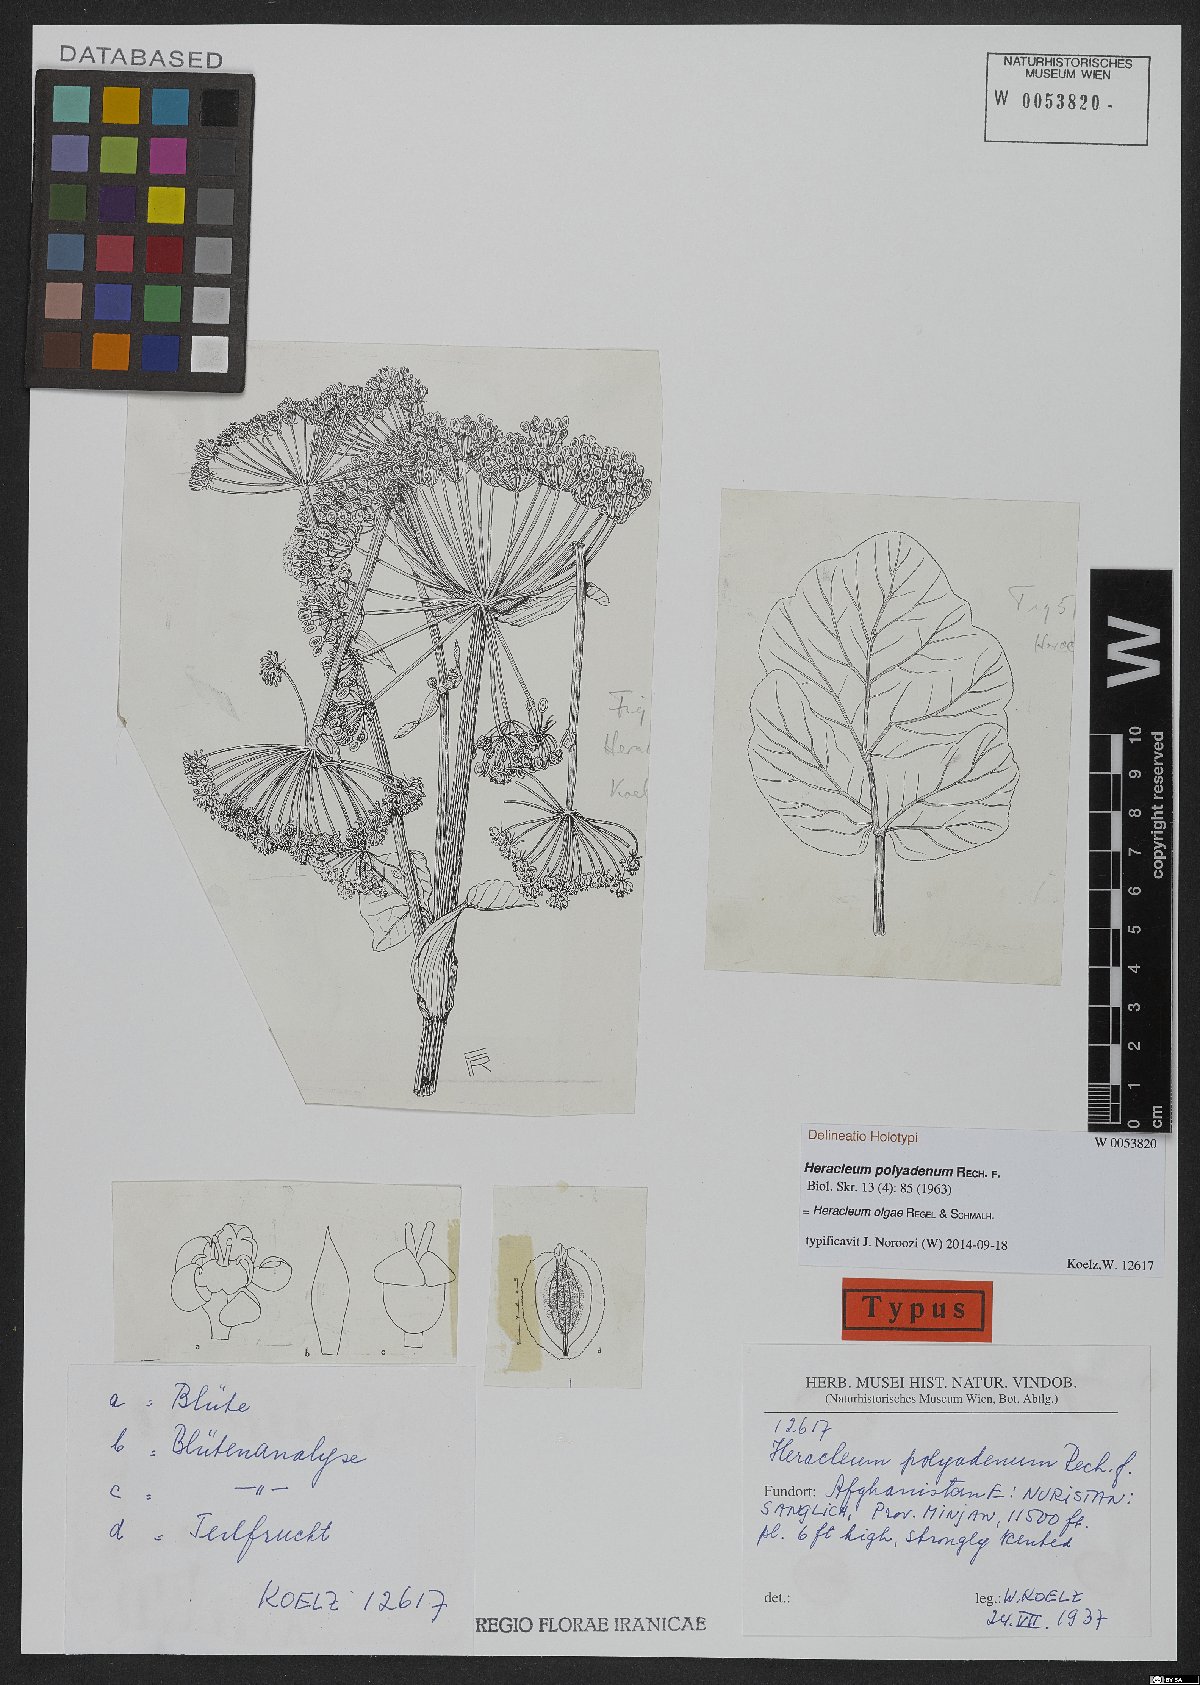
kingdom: Plantae
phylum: Tracheophyta
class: Magnoliopsida
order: Apiales
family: Apiaceae
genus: Tetrataenium
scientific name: Tetrataenium olgae
